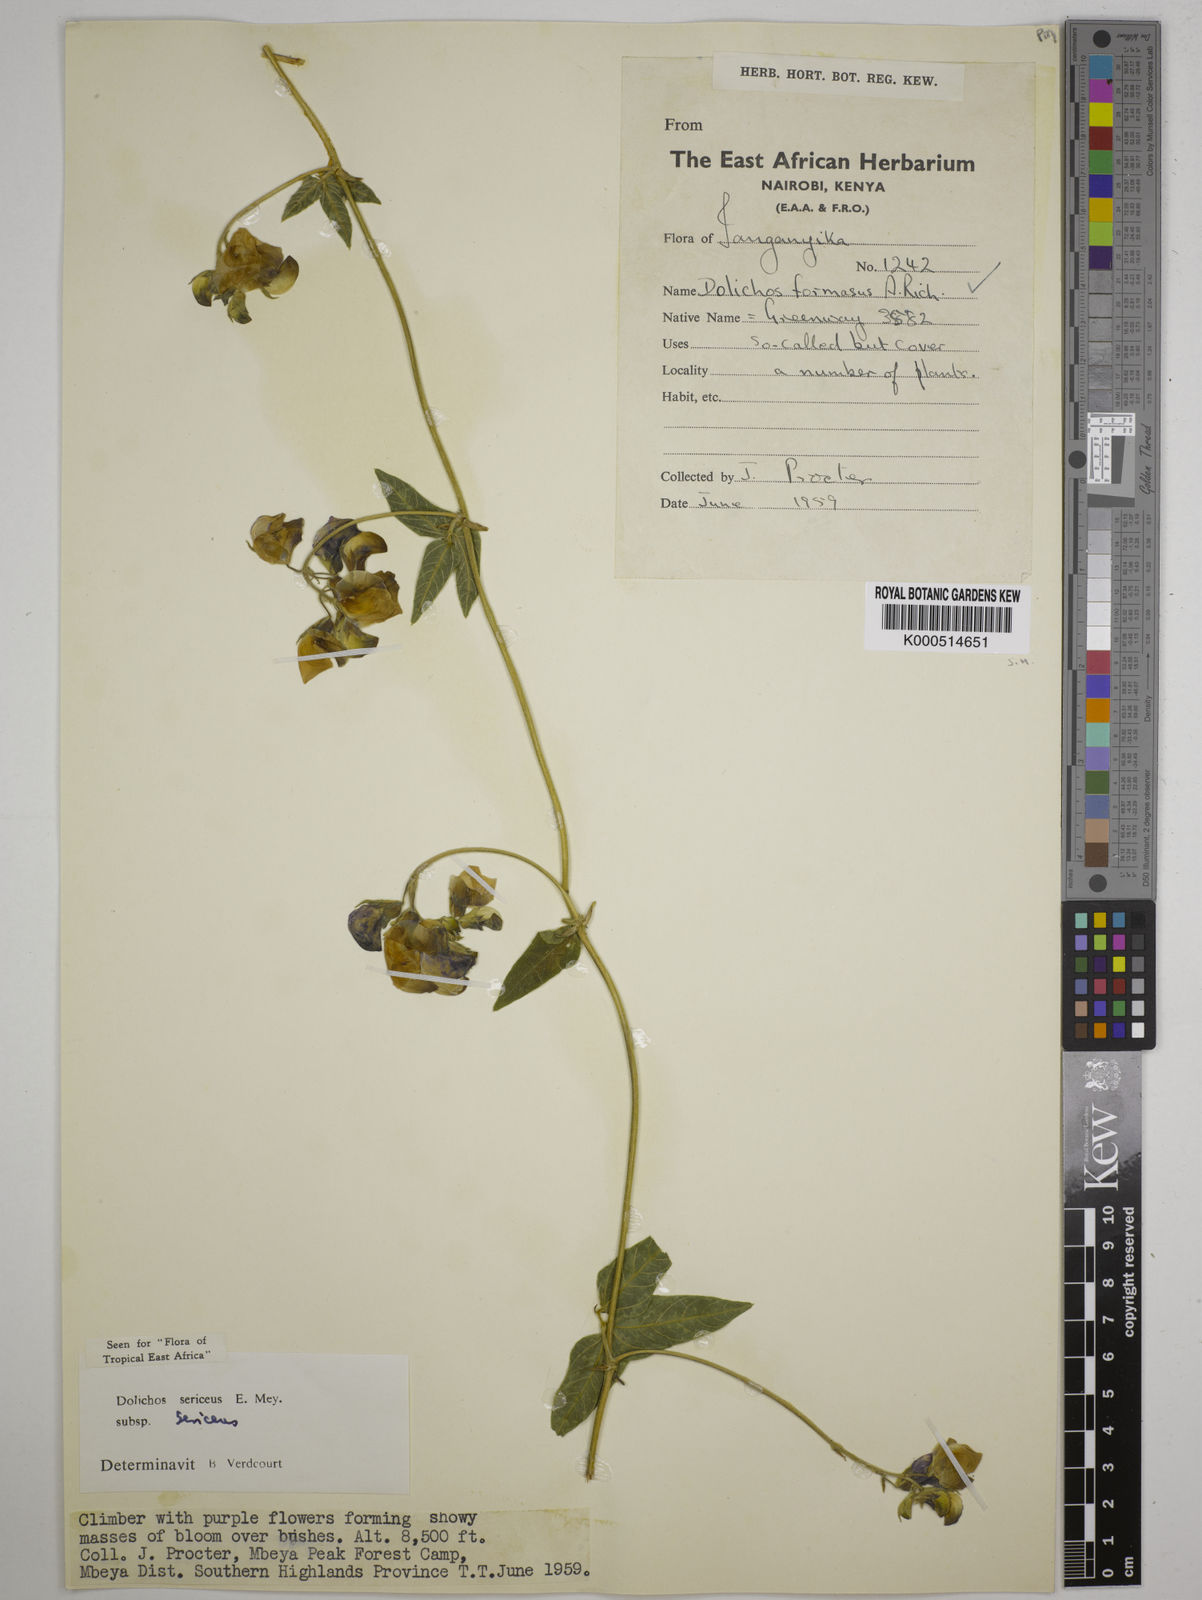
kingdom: Plantae
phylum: Tracheophyta
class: Magnoliopsida
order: Fabales
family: Fabaceae
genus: Dolichos
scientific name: Dolichos sericeus
